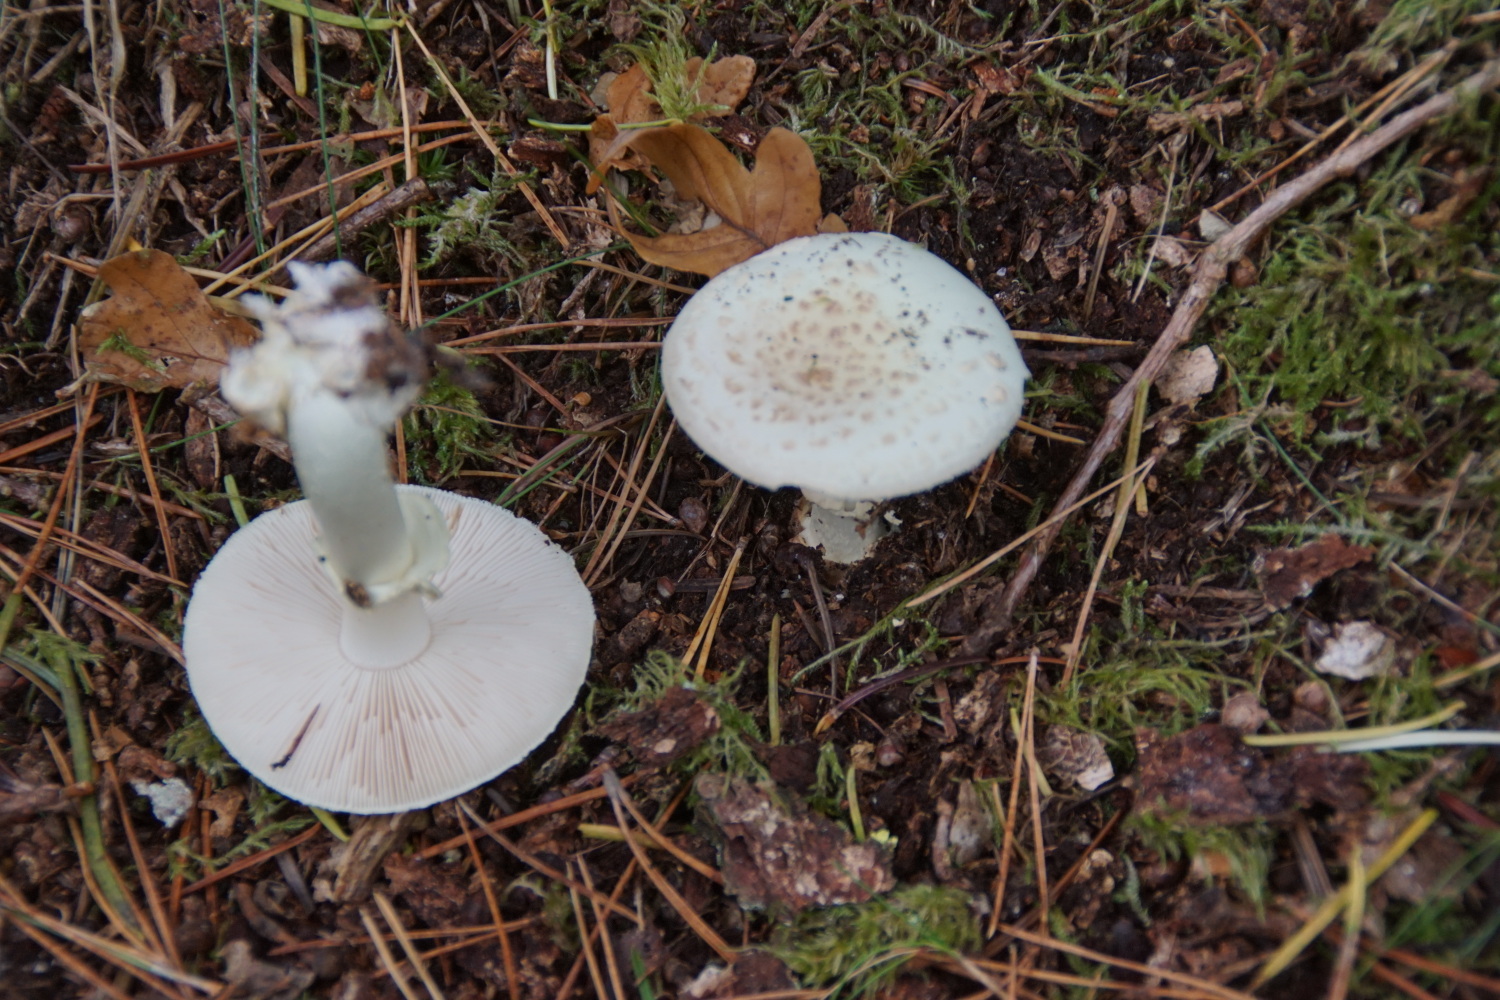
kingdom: Fungi
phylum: Basidiomycota
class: Agaricomycetes
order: Agaricales
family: Amanitaceae
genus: Amanita
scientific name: Amanita citrina
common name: False death-cap
